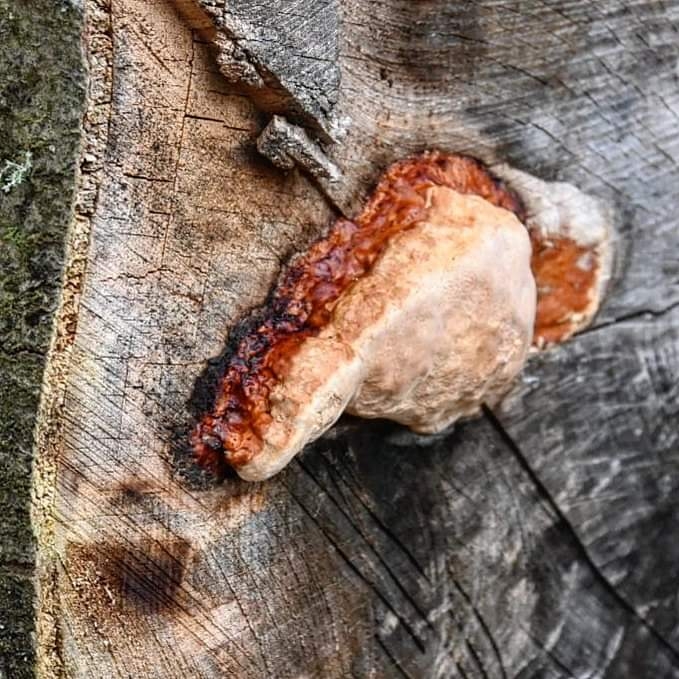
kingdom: Fungi
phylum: Basidiomycota
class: Agaricomycetes
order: Polyporales
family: Fomitopsidaceae
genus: Fomitopsis
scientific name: Fomitopsis pinicola
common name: randbæltet hovporesvamp
